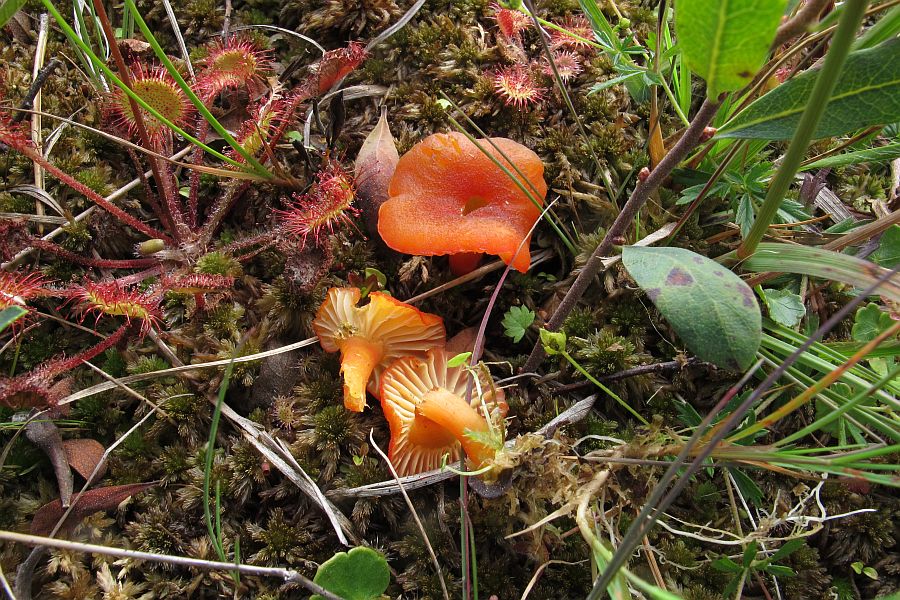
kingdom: Fungi
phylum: Basidiomycota
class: Agaricomycetes
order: Agaricales
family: Hygrophoraceae
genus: Hygrocybe
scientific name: Hygrocybe
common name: vokshat
